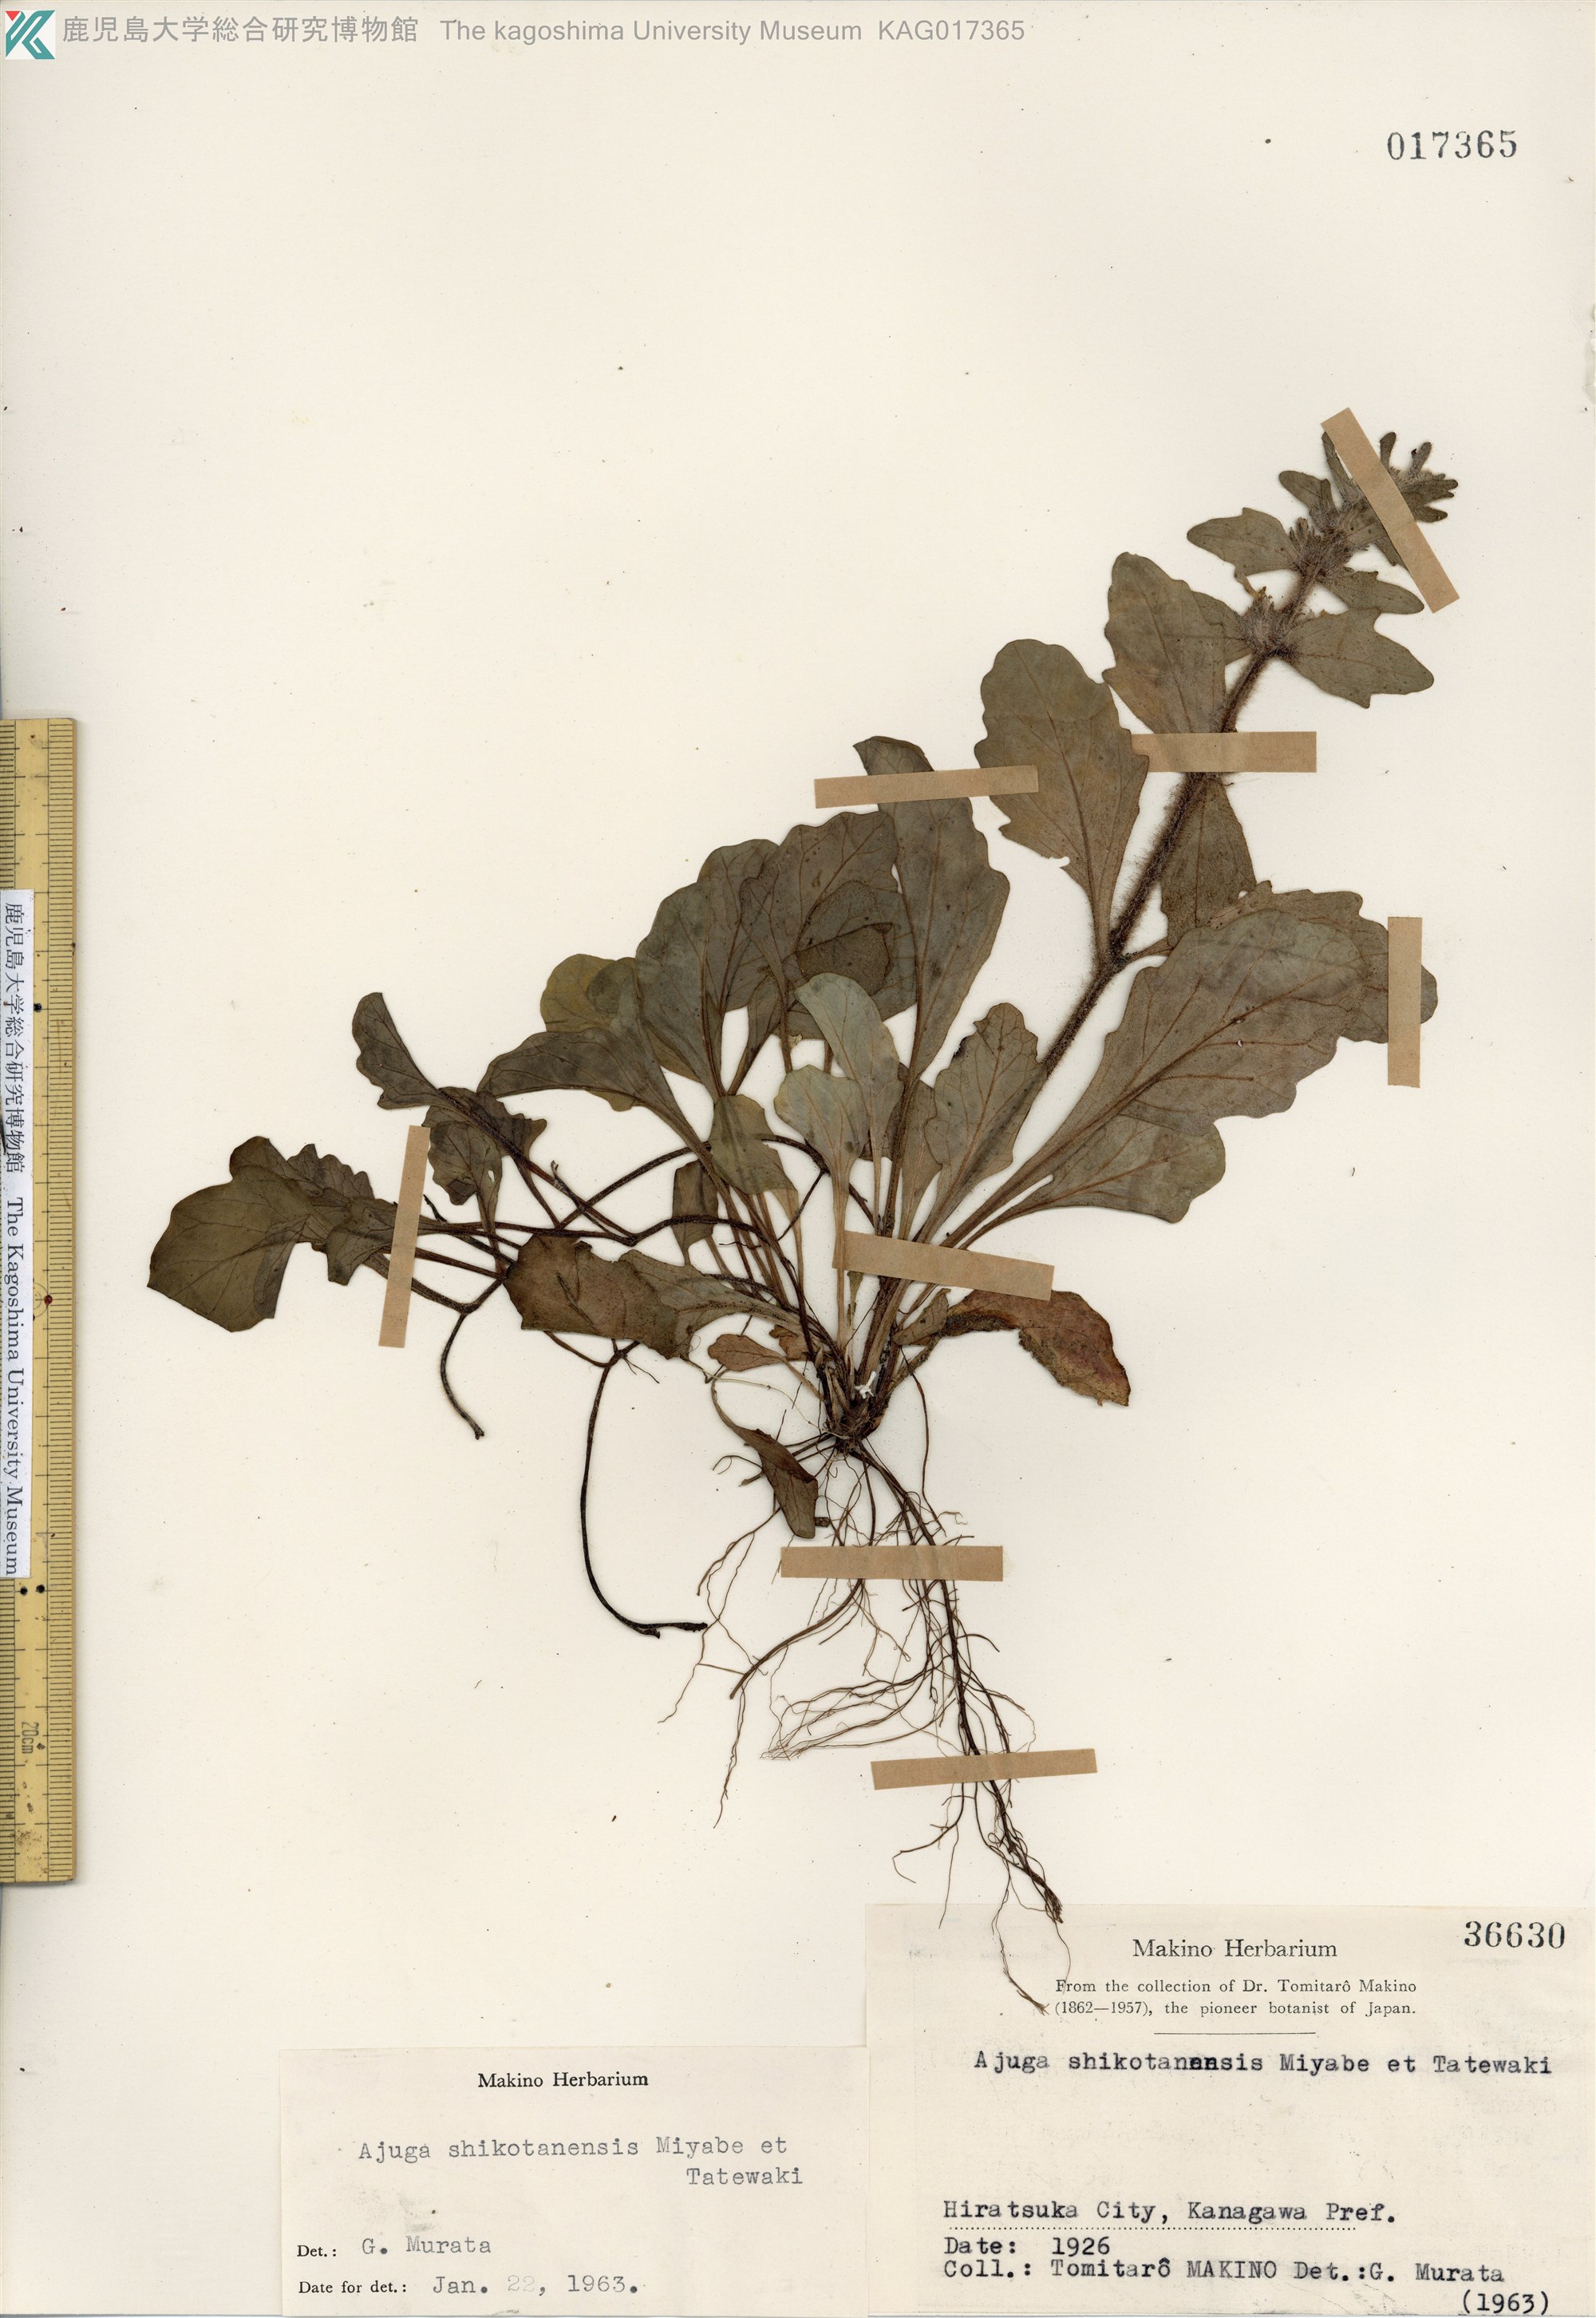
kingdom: Plantae
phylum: Tracheophyta
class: Magnoliopsida
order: Lamiales
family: Lamiaceae
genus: Ajuga
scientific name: Ajuga shikotanensis
